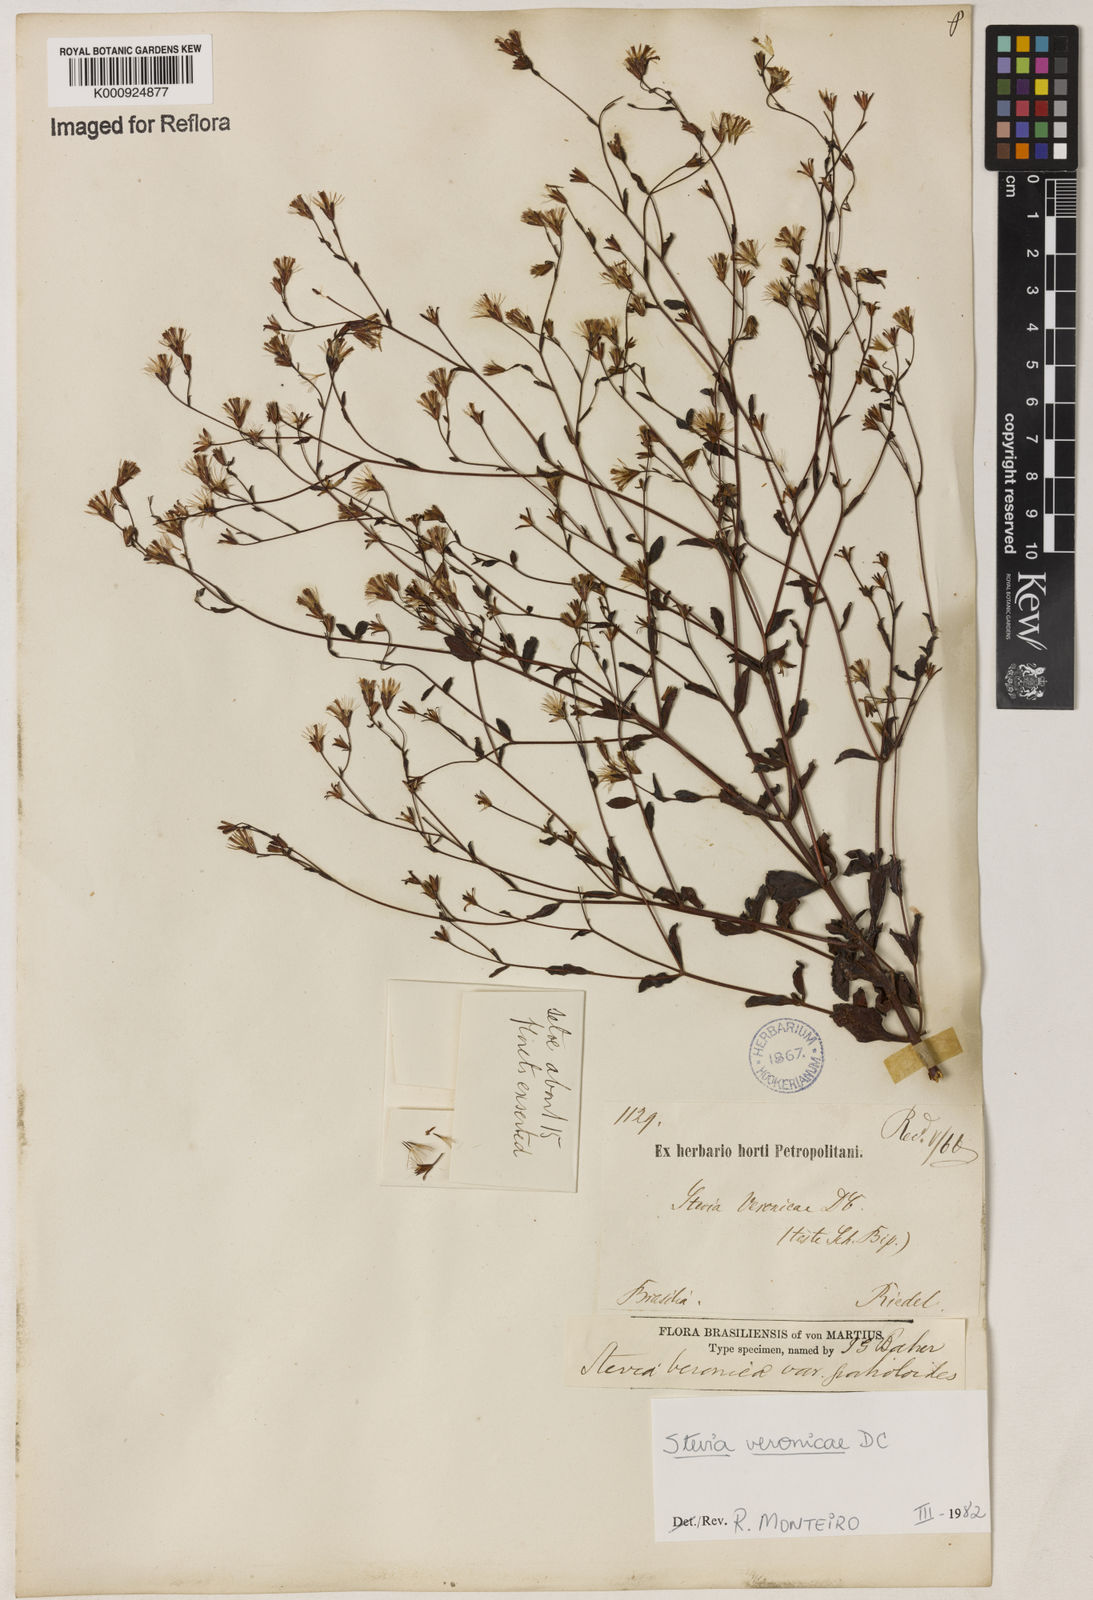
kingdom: Plantae
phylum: Tracheophyta
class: Magnoliopsida
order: Asterales
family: Asteraceae
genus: Stevia
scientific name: Stevia veronicae
